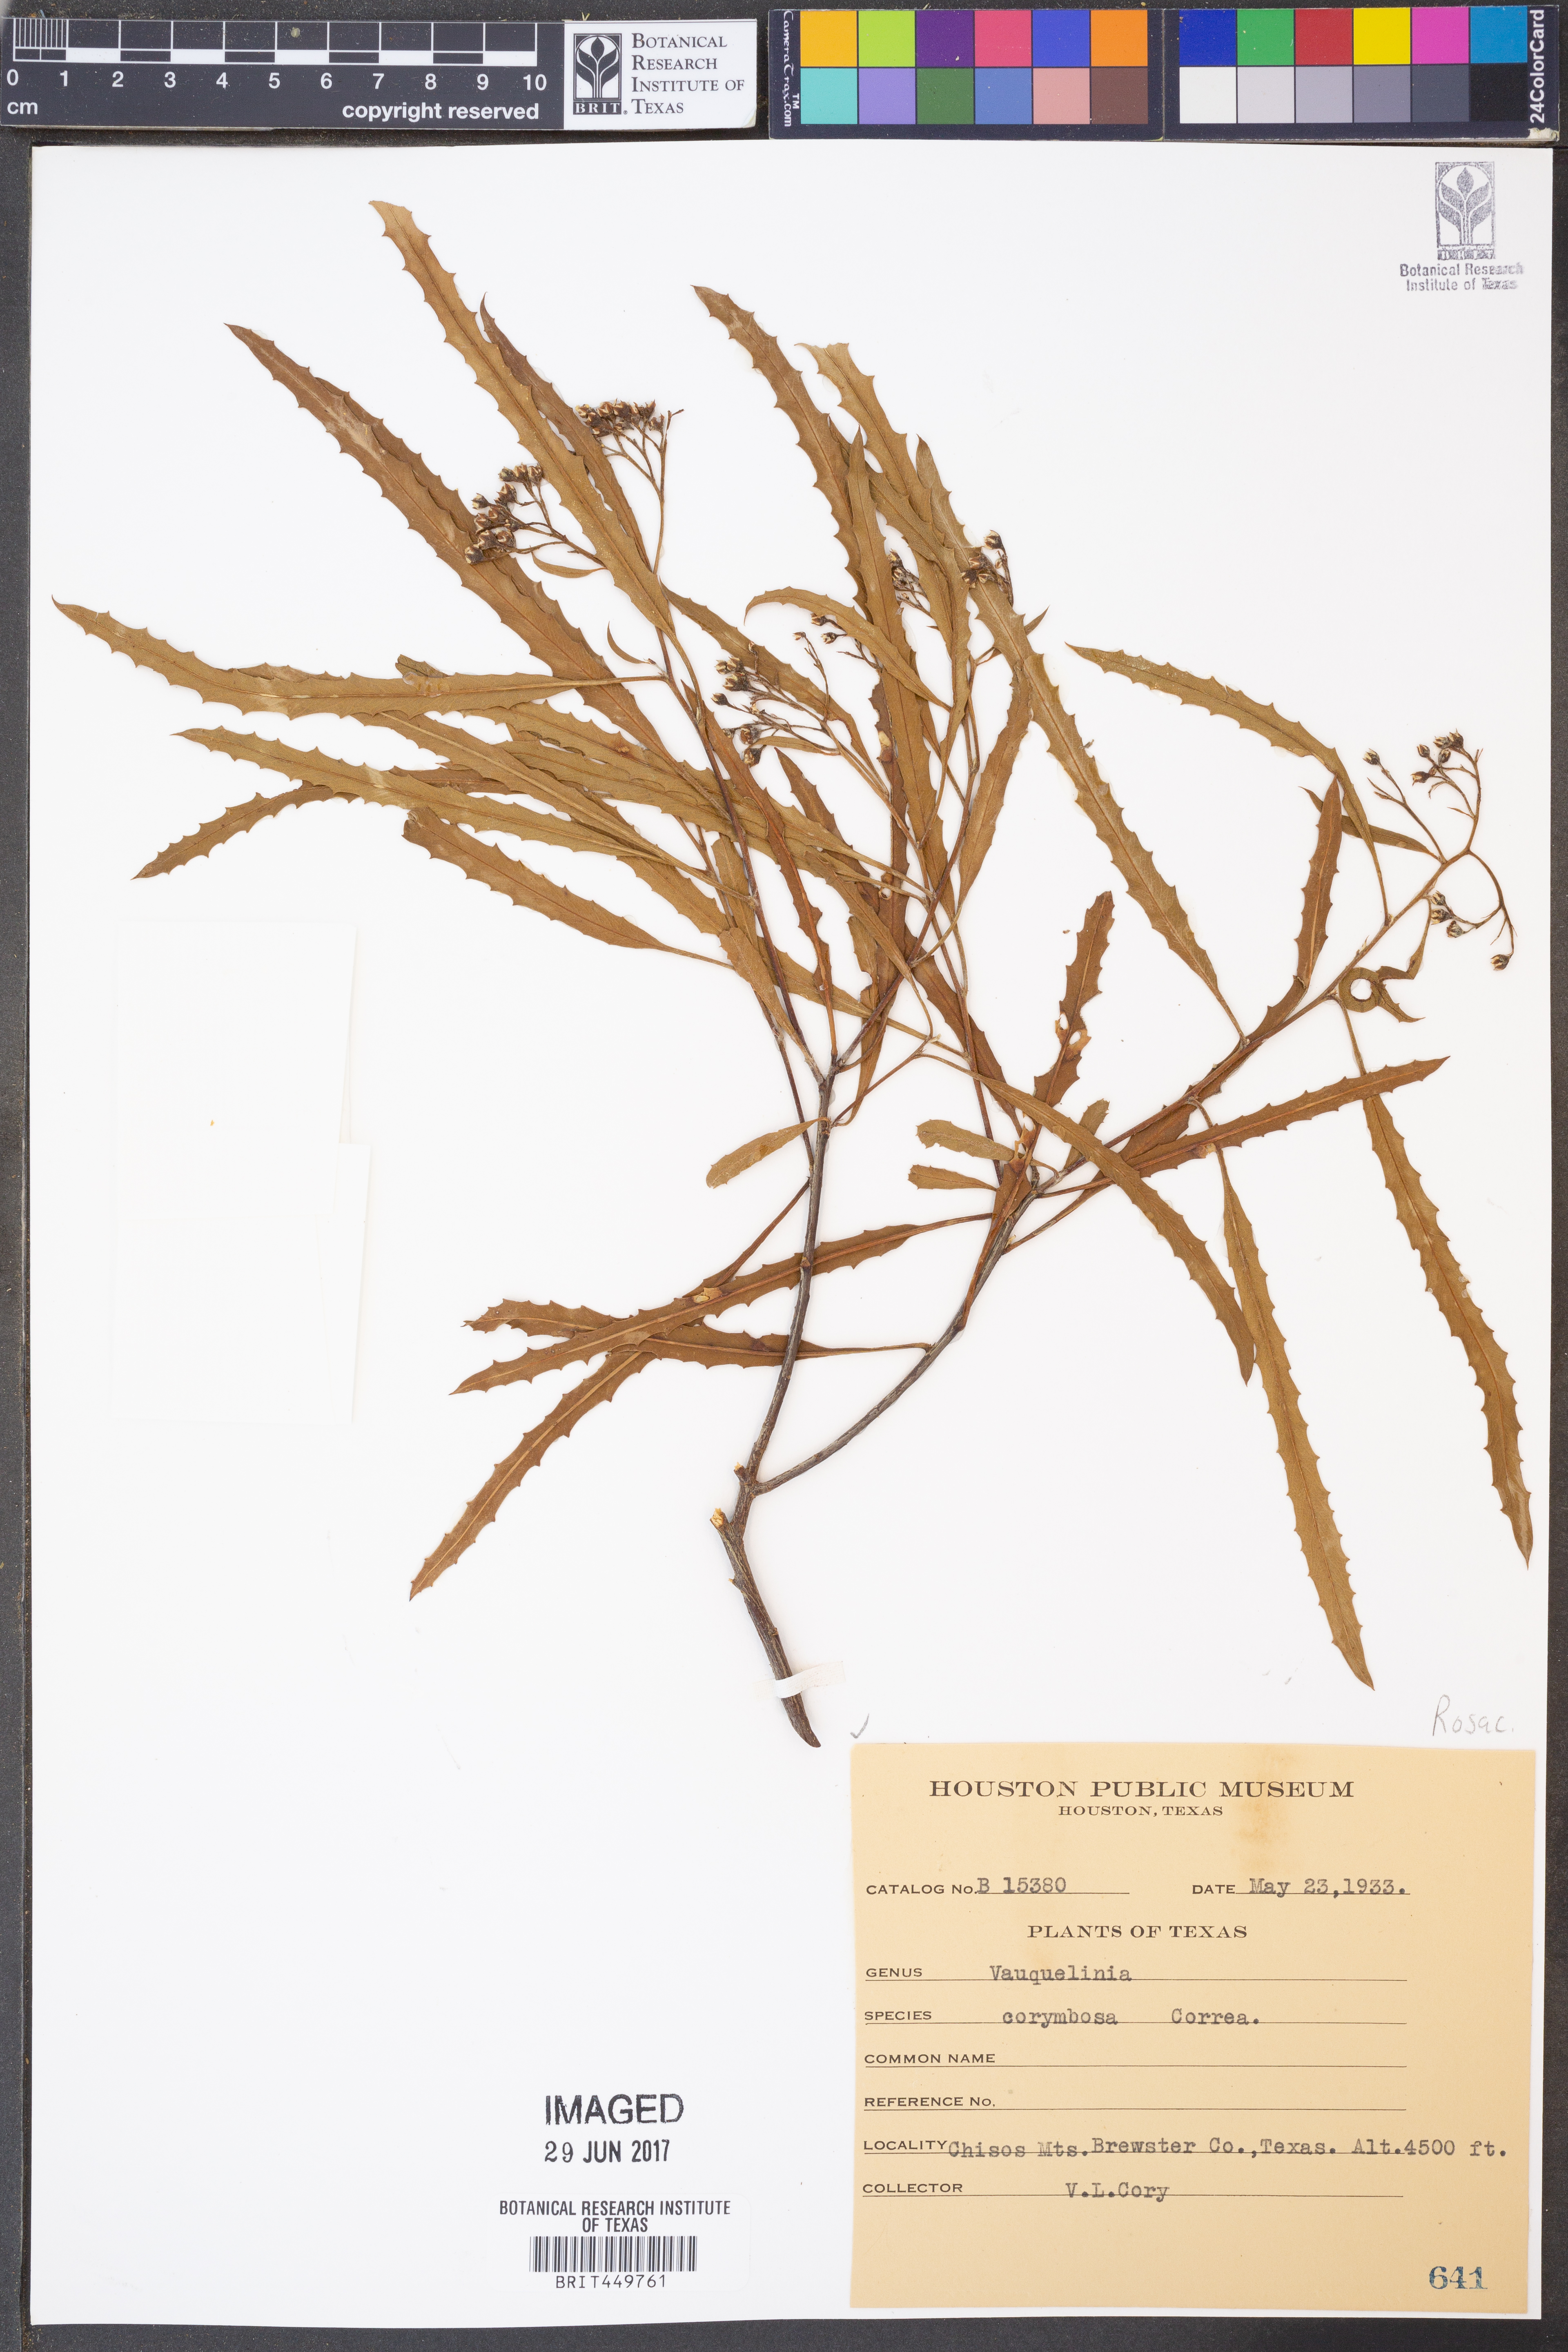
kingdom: Plantae
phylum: Tracheophyta
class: Magnoliopsida
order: Rosales
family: Rosaceae
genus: Vauquelinia
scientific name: Vauquelinia corymbosa
